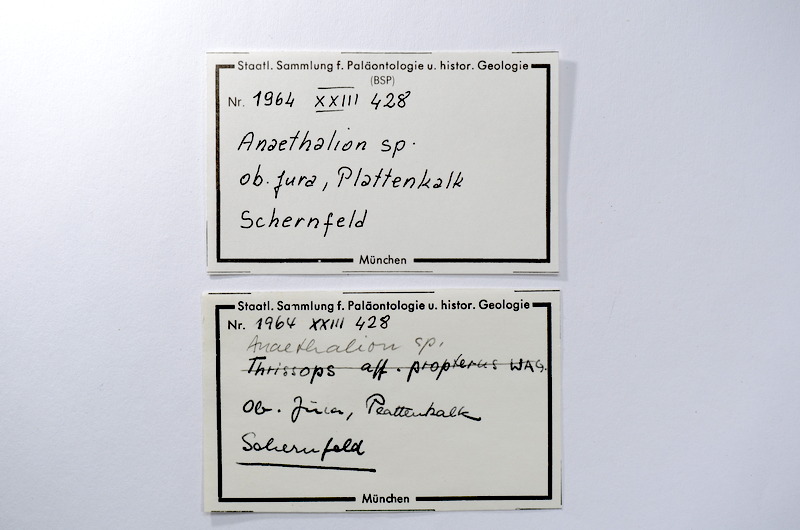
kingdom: Animalia
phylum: Chordata
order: Elopiformes
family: Anaethalionidae
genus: Anaethalion
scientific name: Anaethalion
